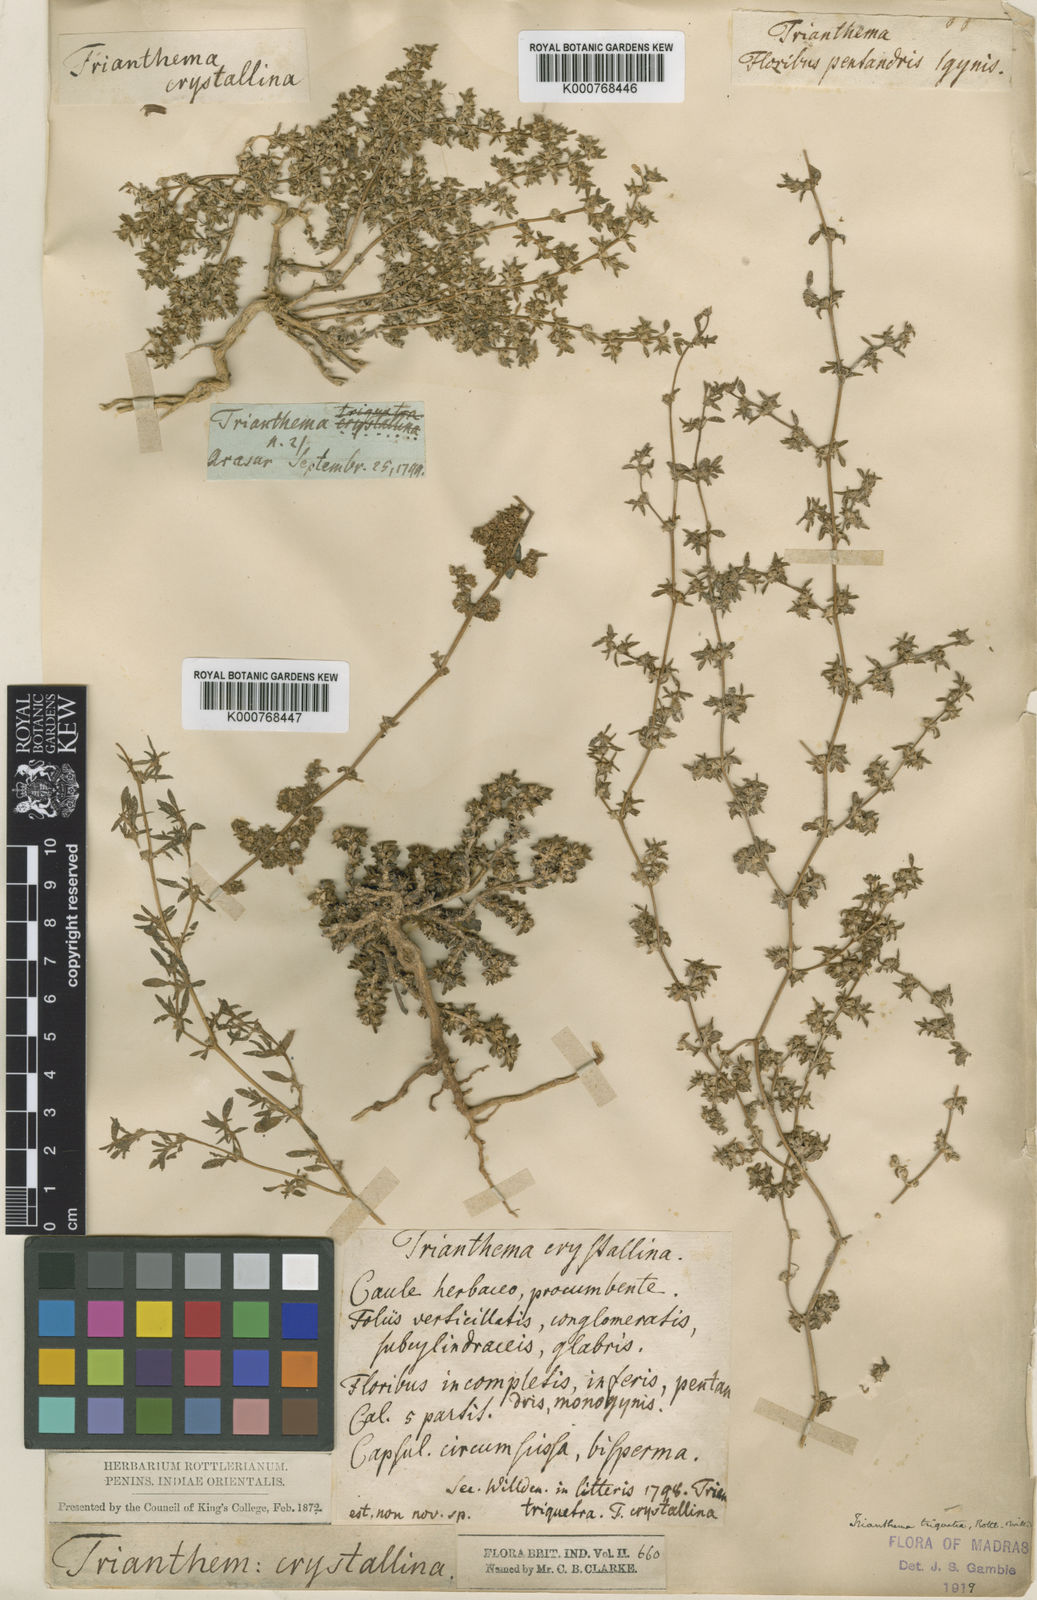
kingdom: Plantae
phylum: Tracheophyta
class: Magnoliopsida
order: Caryophyllales
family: Aizoaceae
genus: Trianthema
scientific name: Trianthema triquetrum
